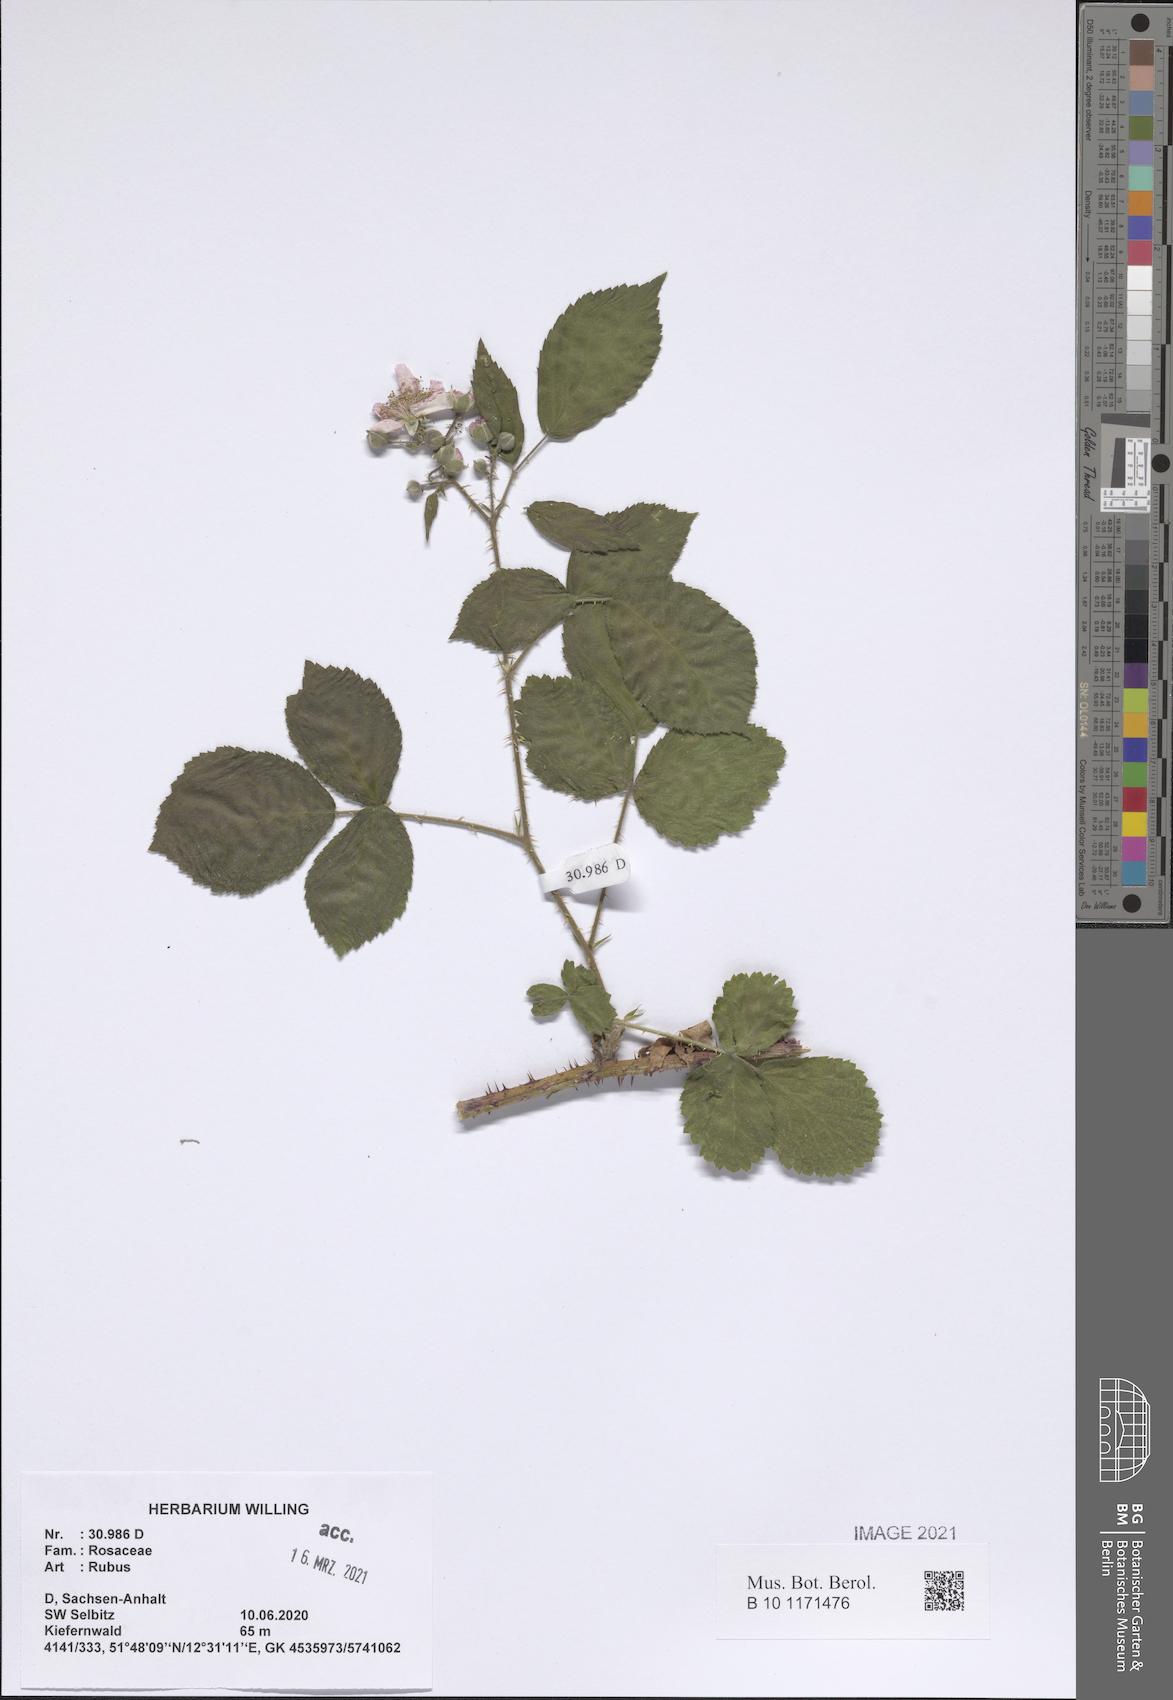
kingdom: Plantae
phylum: Tracheophyta
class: Magnoliopsida
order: Rosales
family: Rosaceae
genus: Rubus
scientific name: Rubus
